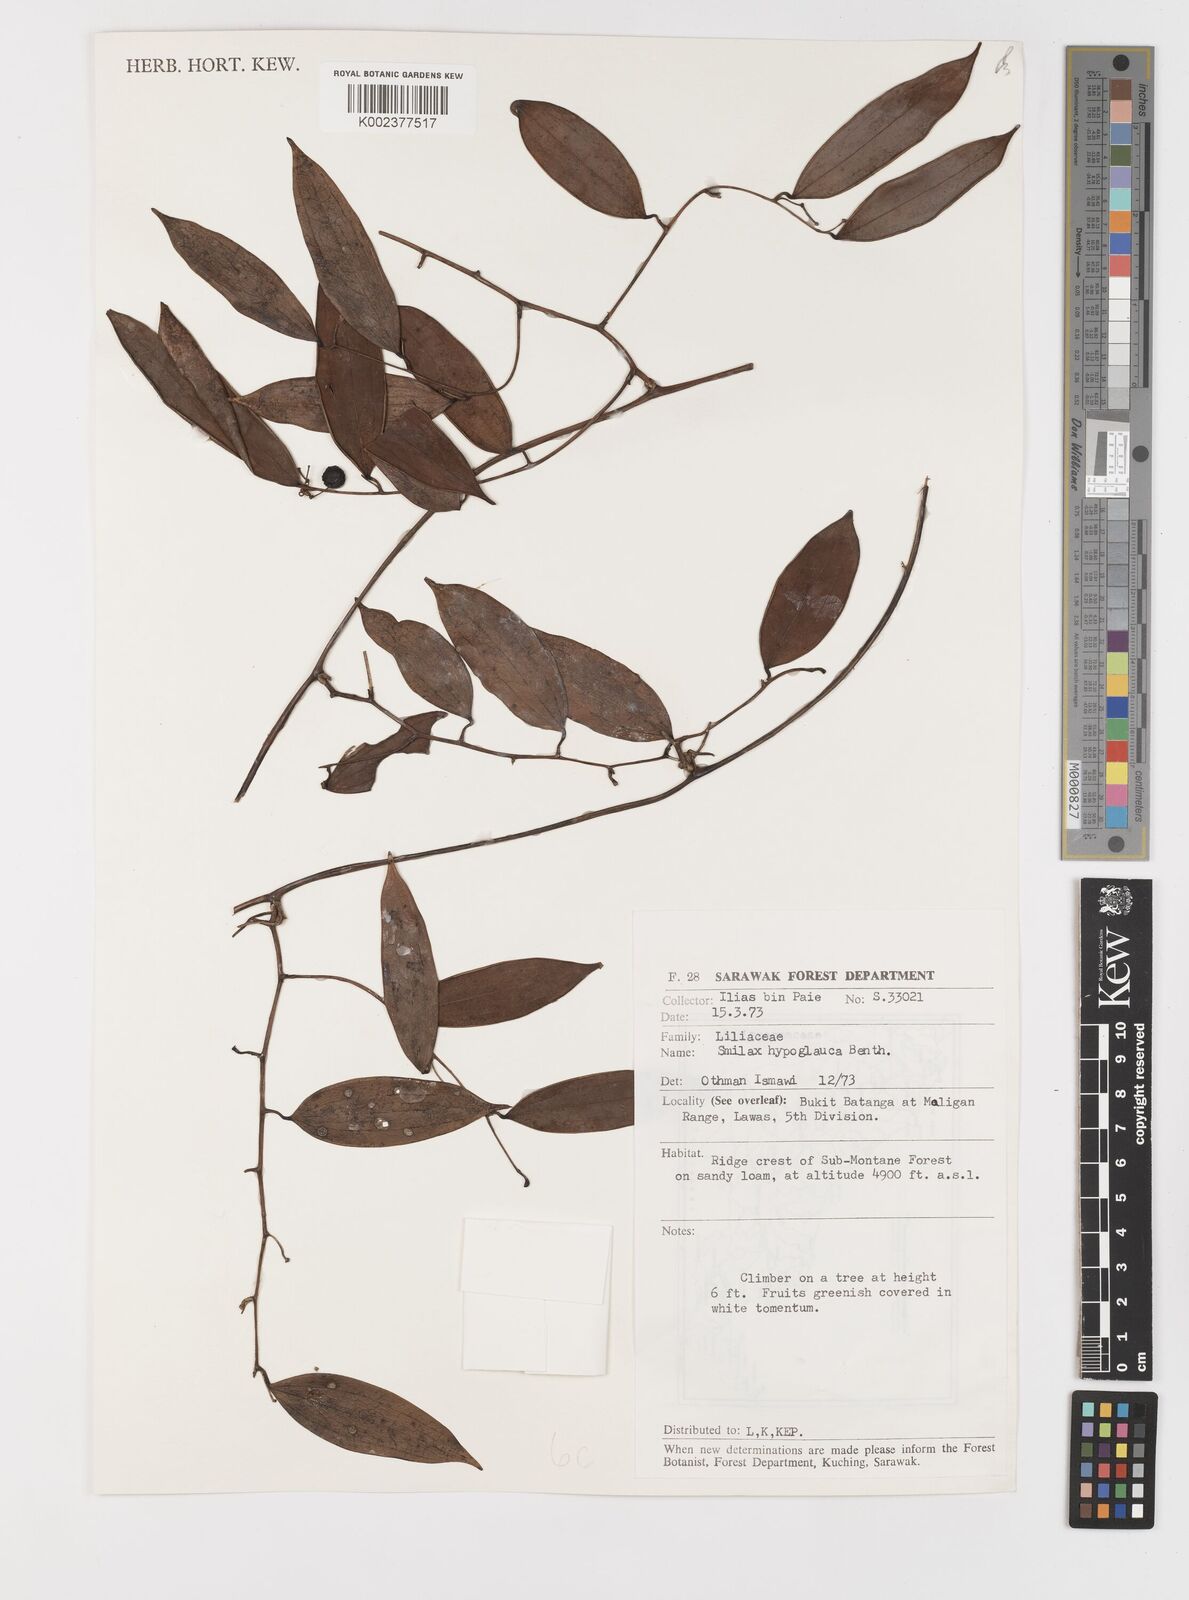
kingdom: Plantae
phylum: Tracheophyta
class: Liliopsida
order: Liliales
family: Smilacaceae
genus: Smilax
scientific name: Smilax hypoglauca
